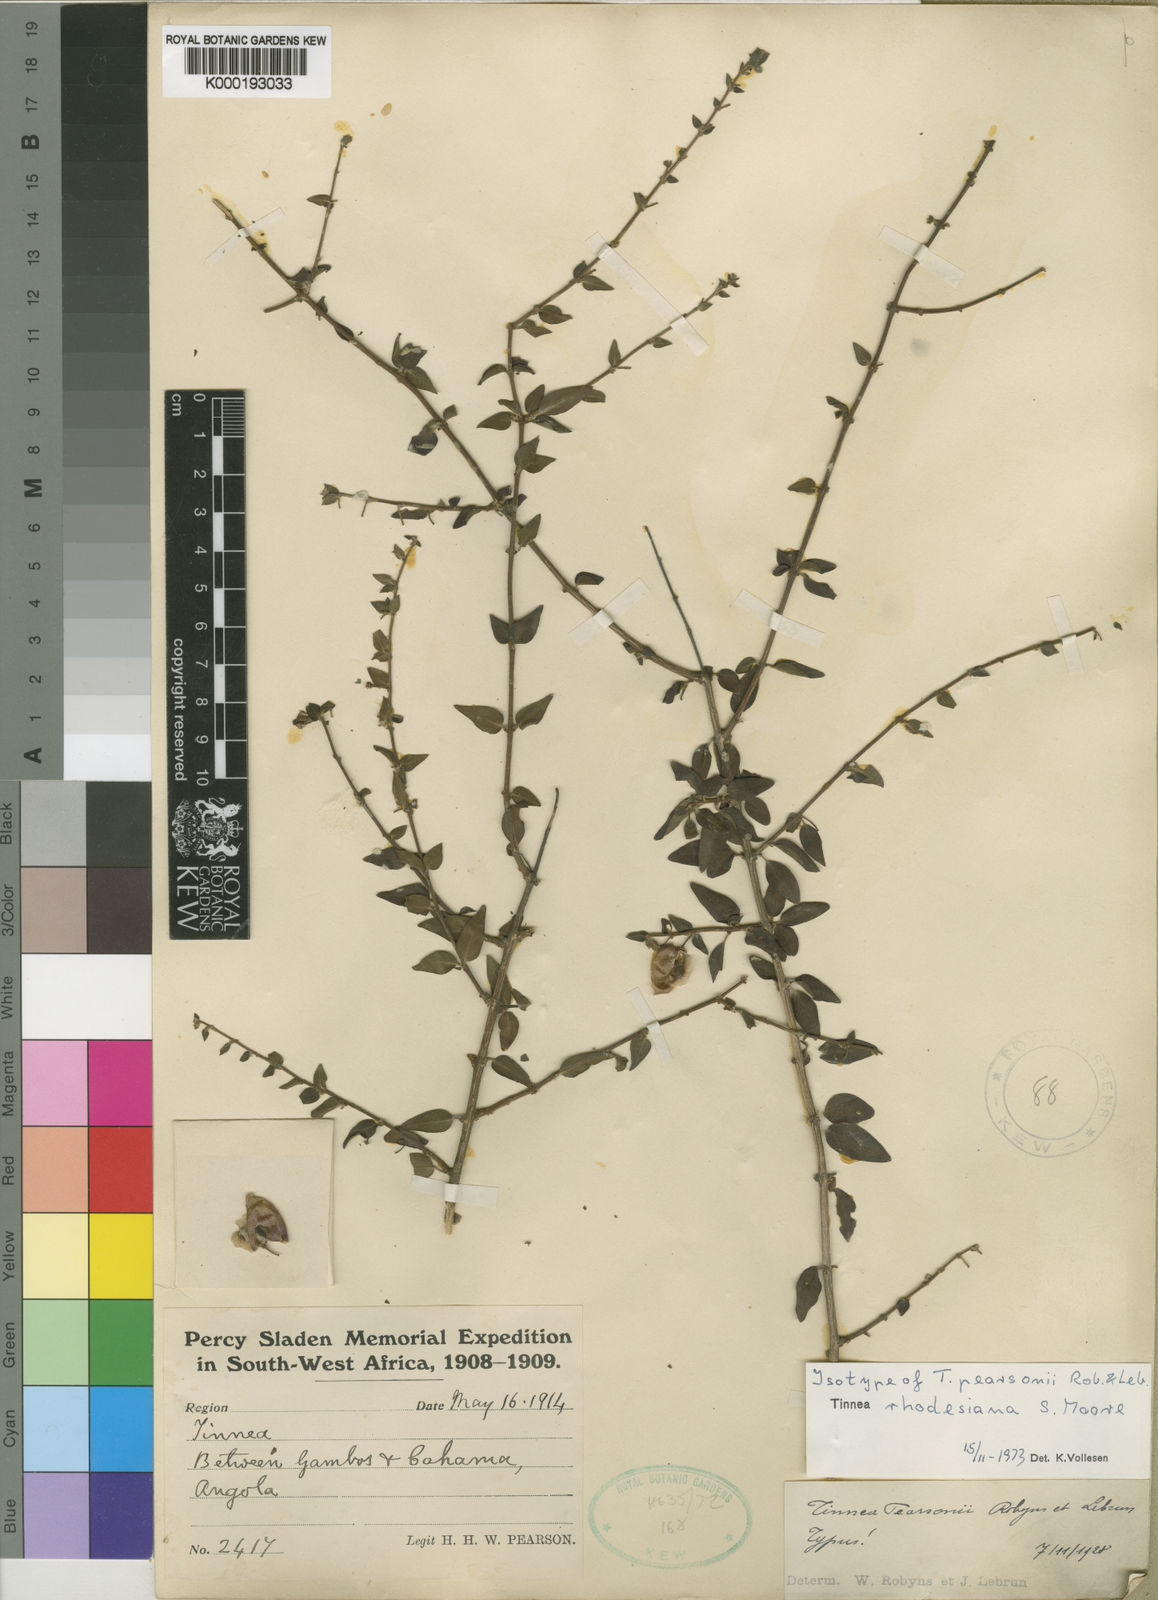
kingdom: Plantae
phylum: Tracheophyta
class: Magnoliopsida
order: Lamiales
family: Lamiaceae
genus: Tinnea
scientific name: Tinnea rhodesiana
